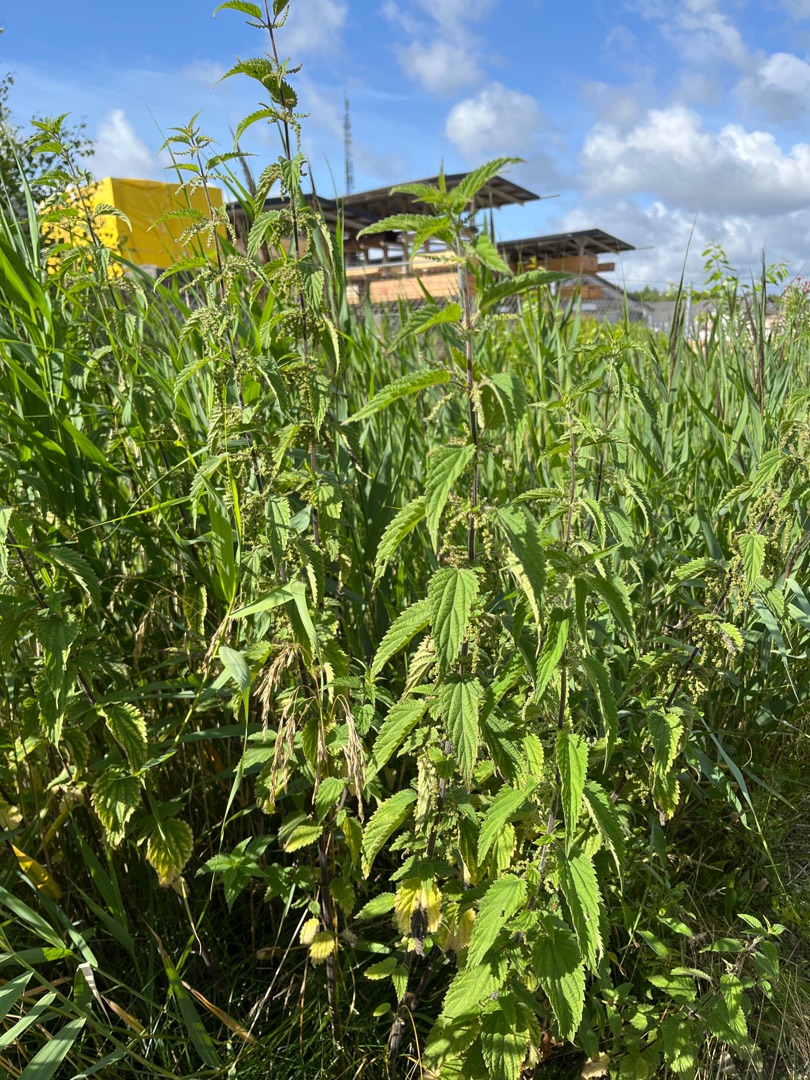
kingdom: Plantae
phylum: Tracheophyta
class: Magnoliopsida
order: Rosales
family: Urticaceae
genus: Urtica
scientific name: Urtica dioica
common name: Stor nælde
